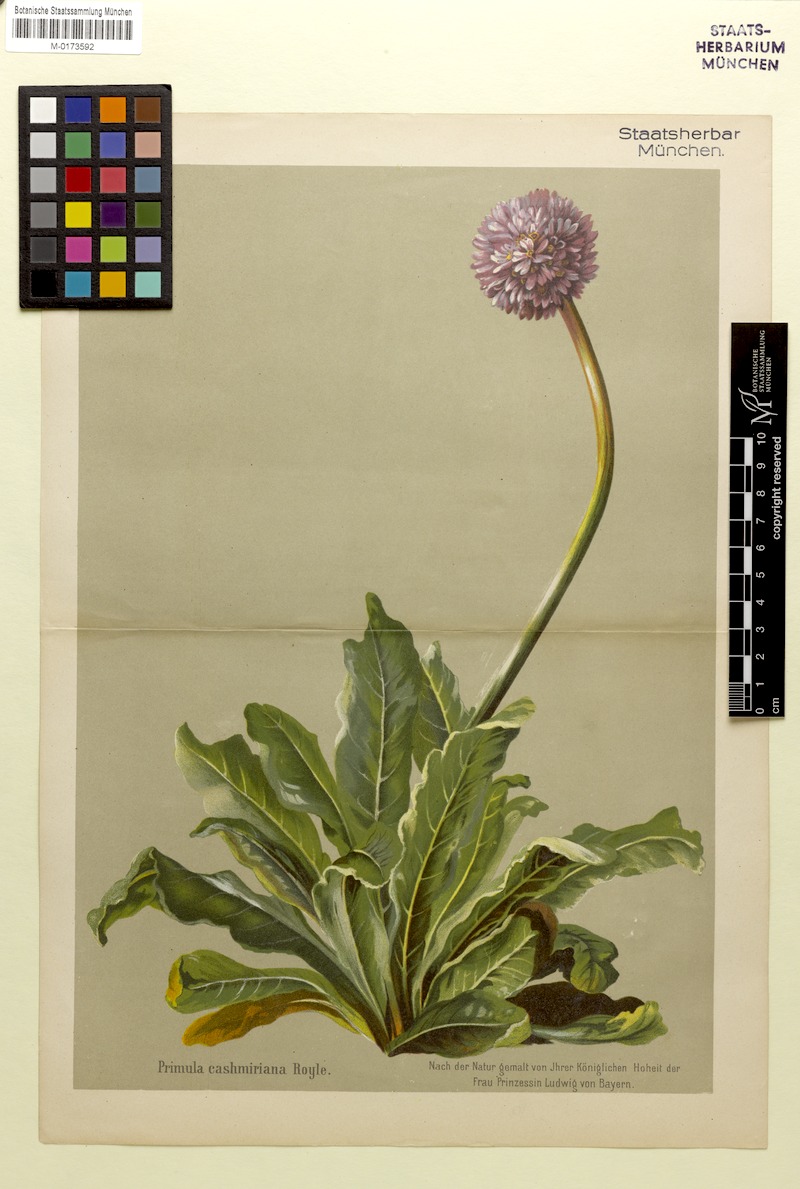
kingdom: Plantae
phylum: Tracheophyta
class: Magnoliopsida
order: Ericales
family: Primulaceae
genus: Primula
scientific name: Primula denticulata
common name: Drumstick primula
